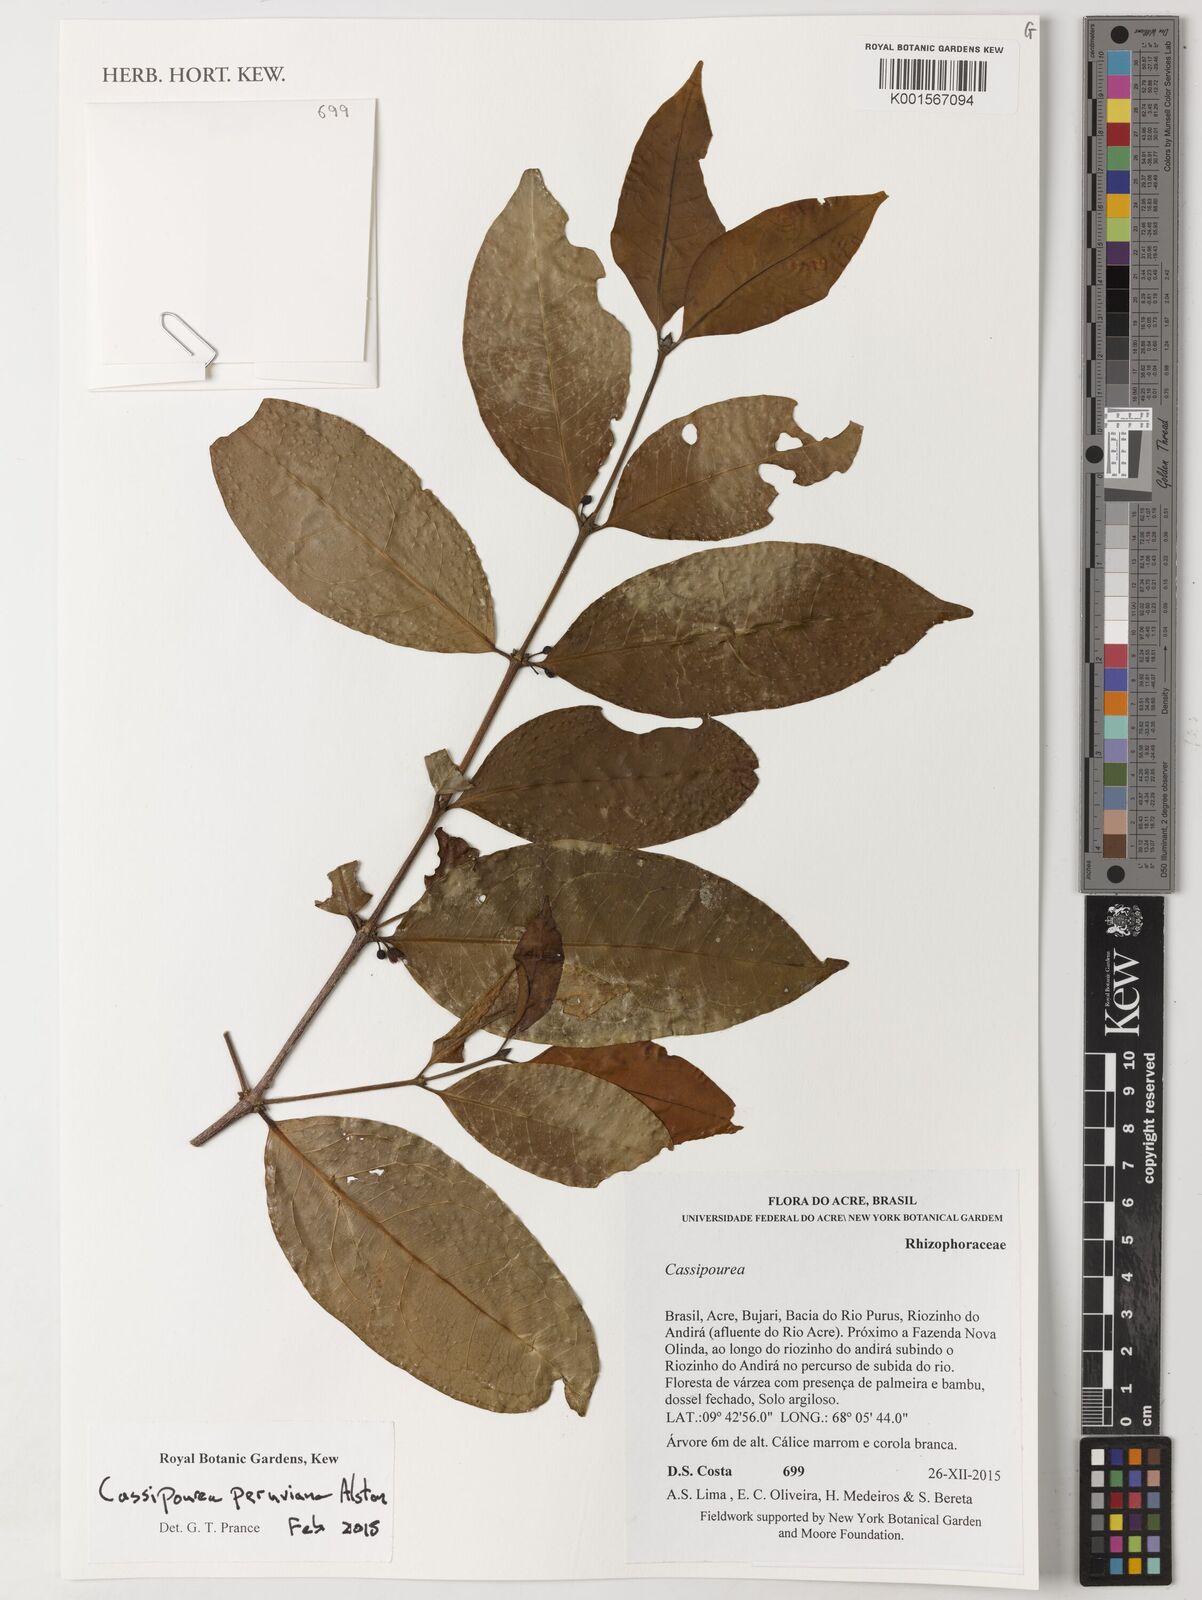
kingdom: Plantae
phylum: Tracheophyta
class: Magnoliopsida
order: Malpighiales
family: Rhizophoraceae
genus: Cassipourea
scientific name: Cassipourea peruviana
